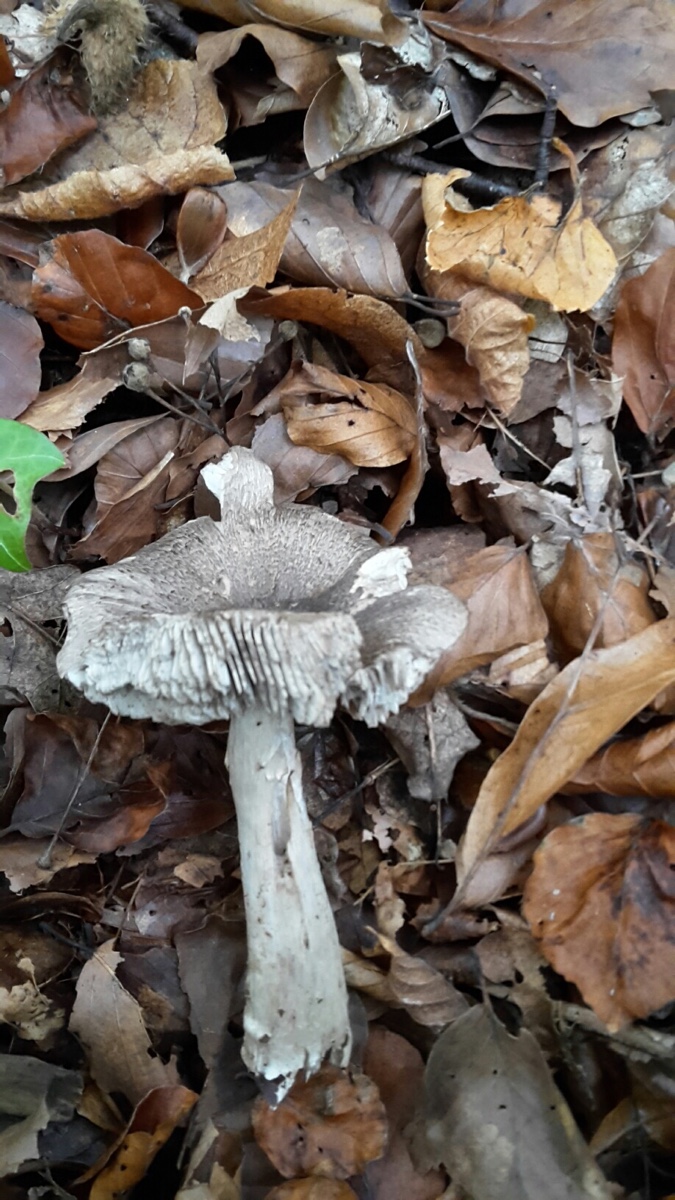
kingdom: Fungi
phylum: Basidiomycota
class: Agaricomycetes
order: Agaricales
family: Tricholomataceae
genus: Tricholoma
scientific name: Tricholoma sciodes
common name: stribet ridderhat
